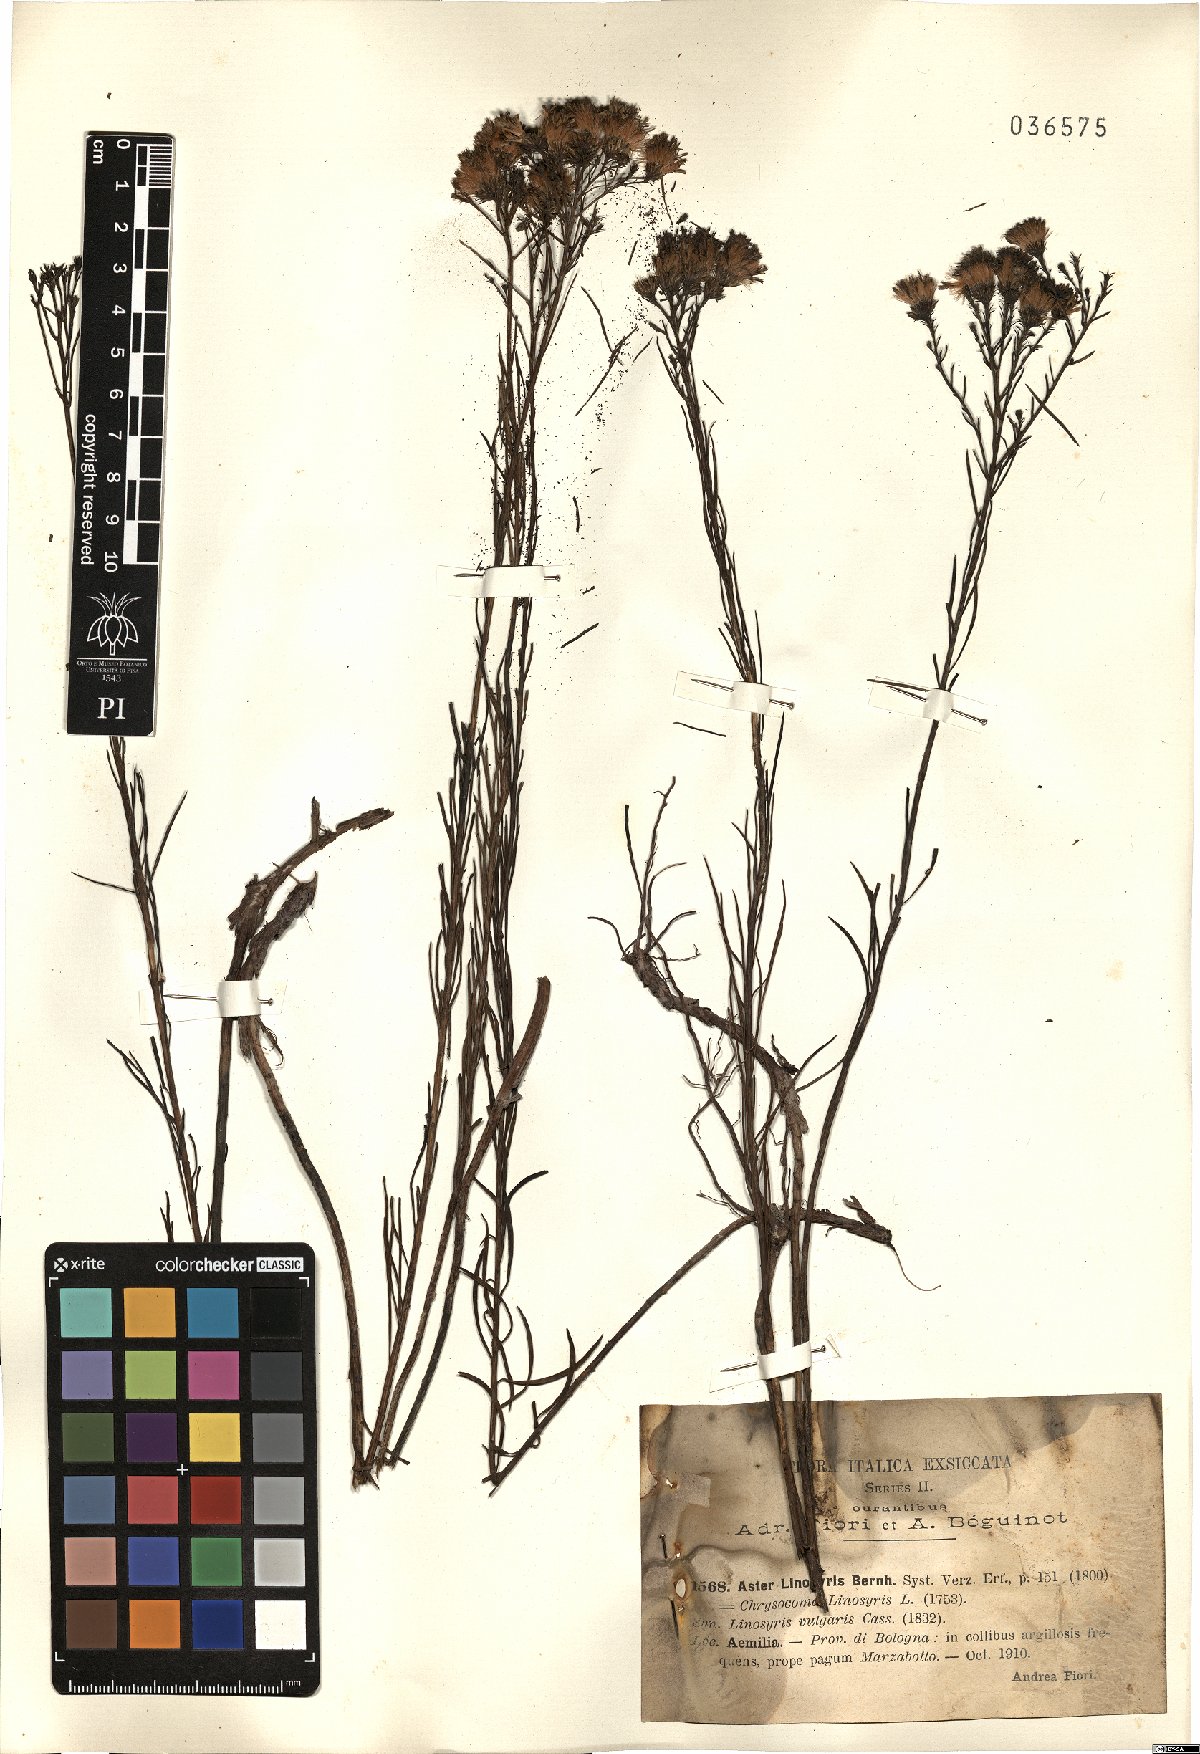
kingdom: Plantae
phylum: Tracheophyta
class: Magnoliopsida
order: Asterales
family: Asteraceae
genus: Galatella
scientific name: Galatella linosyris
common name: Goldilocks aster
